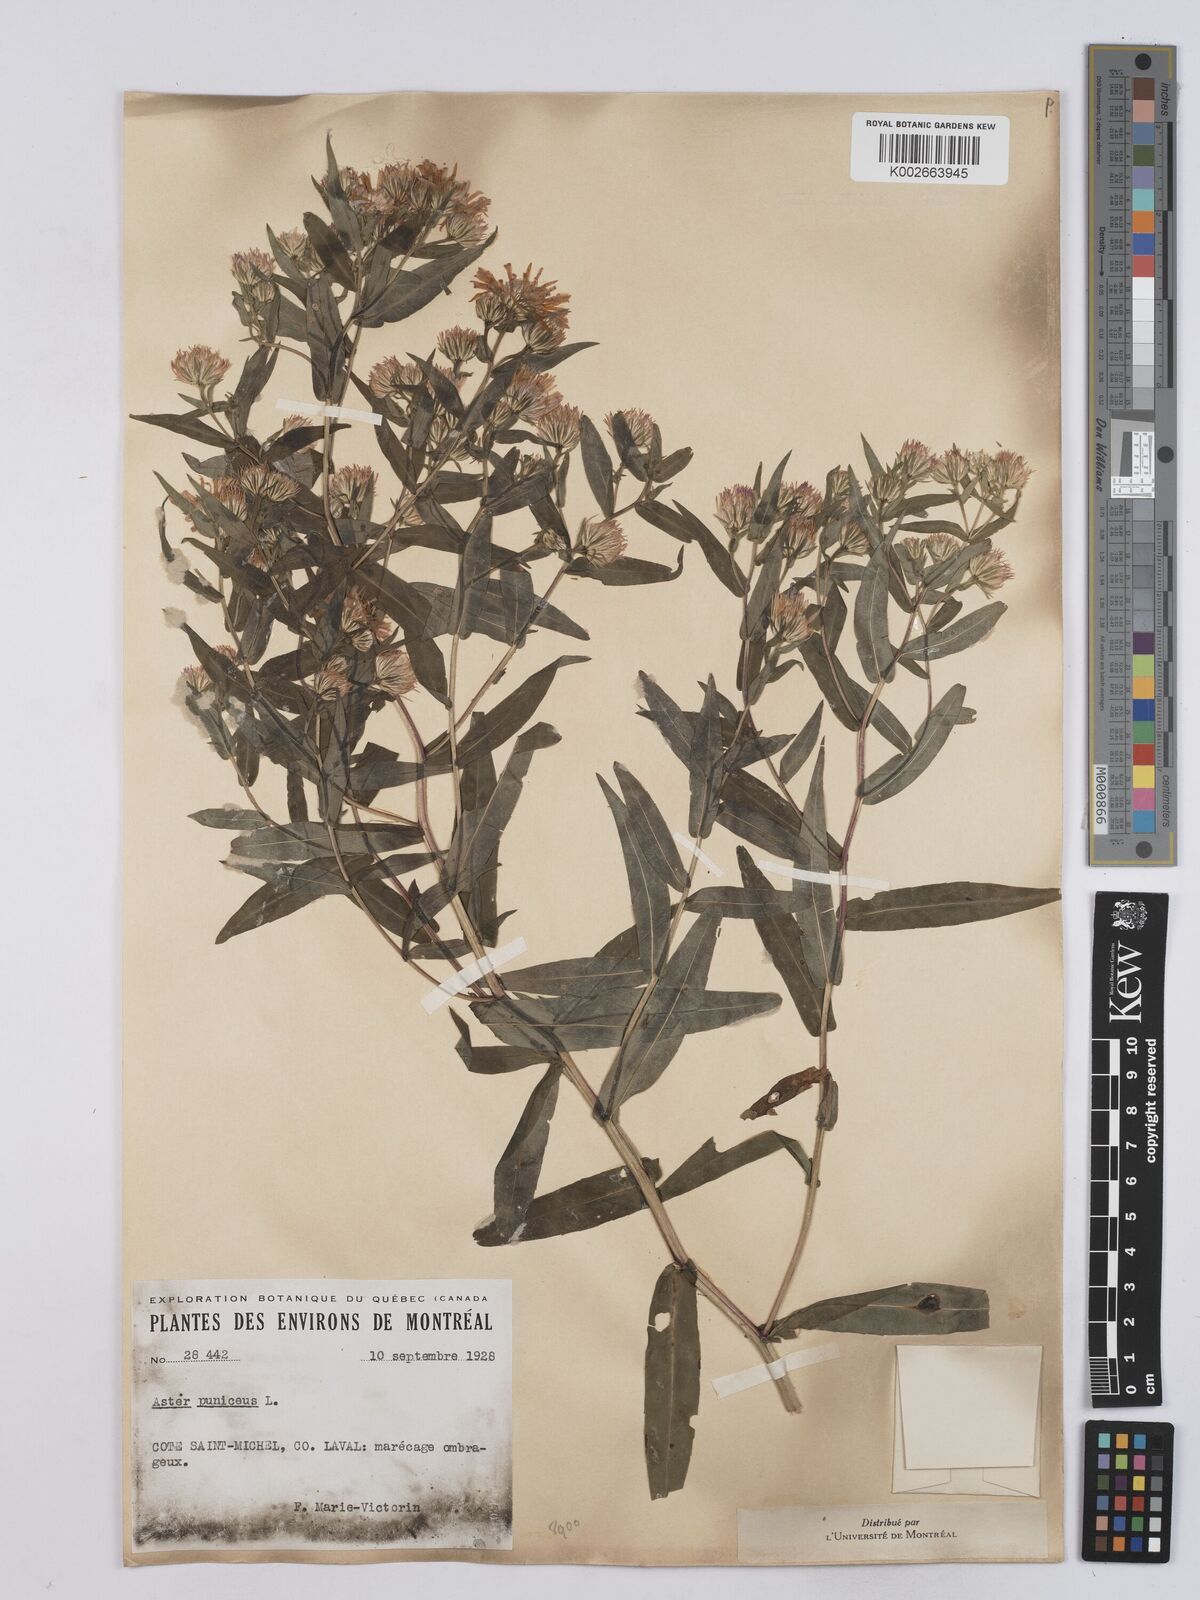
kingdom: Plantae
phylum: Tracheophyta
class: Magnoliopsida
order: Asterales
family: Asteraceae
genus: Symphyotrichum
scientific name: Symphyotrichum puniceum
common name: Bog aster
